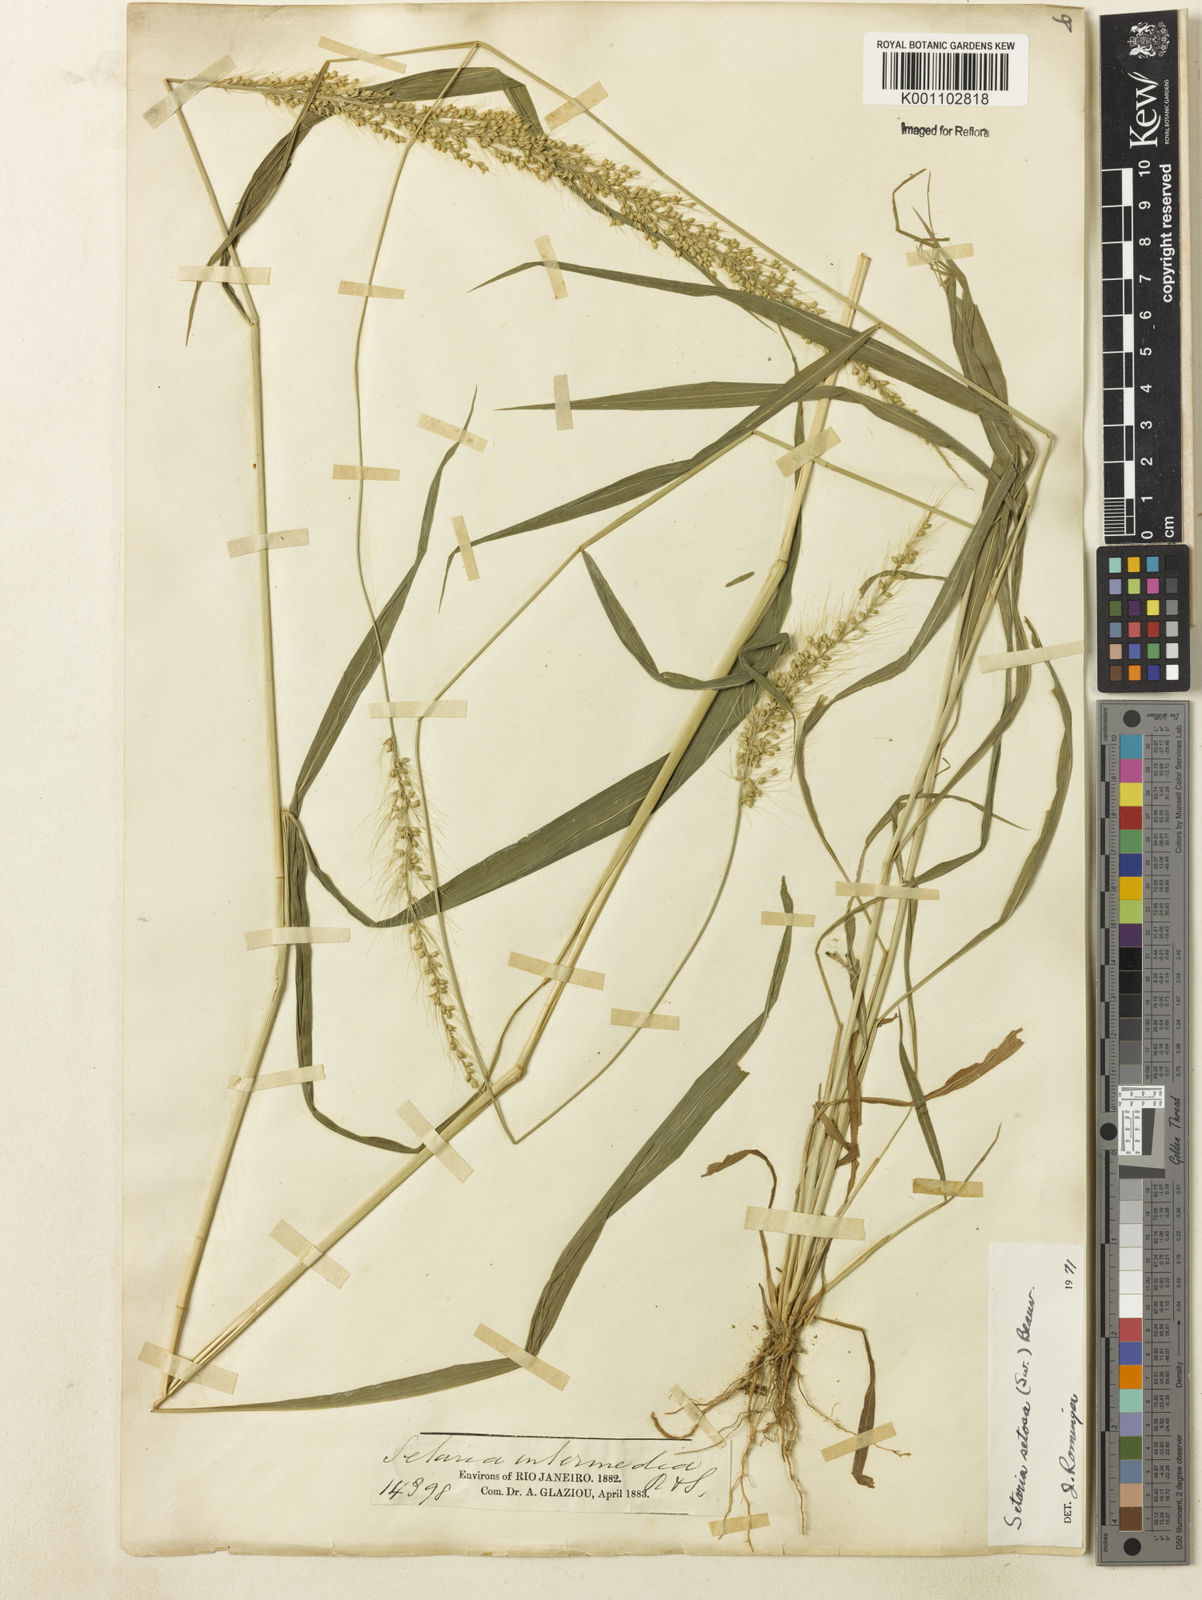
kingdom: Plantae
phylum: Tracheophyta
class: Liliopsida
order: Poales
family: Poaceae
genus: Setaria
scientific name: Setaria setosa
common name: West indies bristle grass
